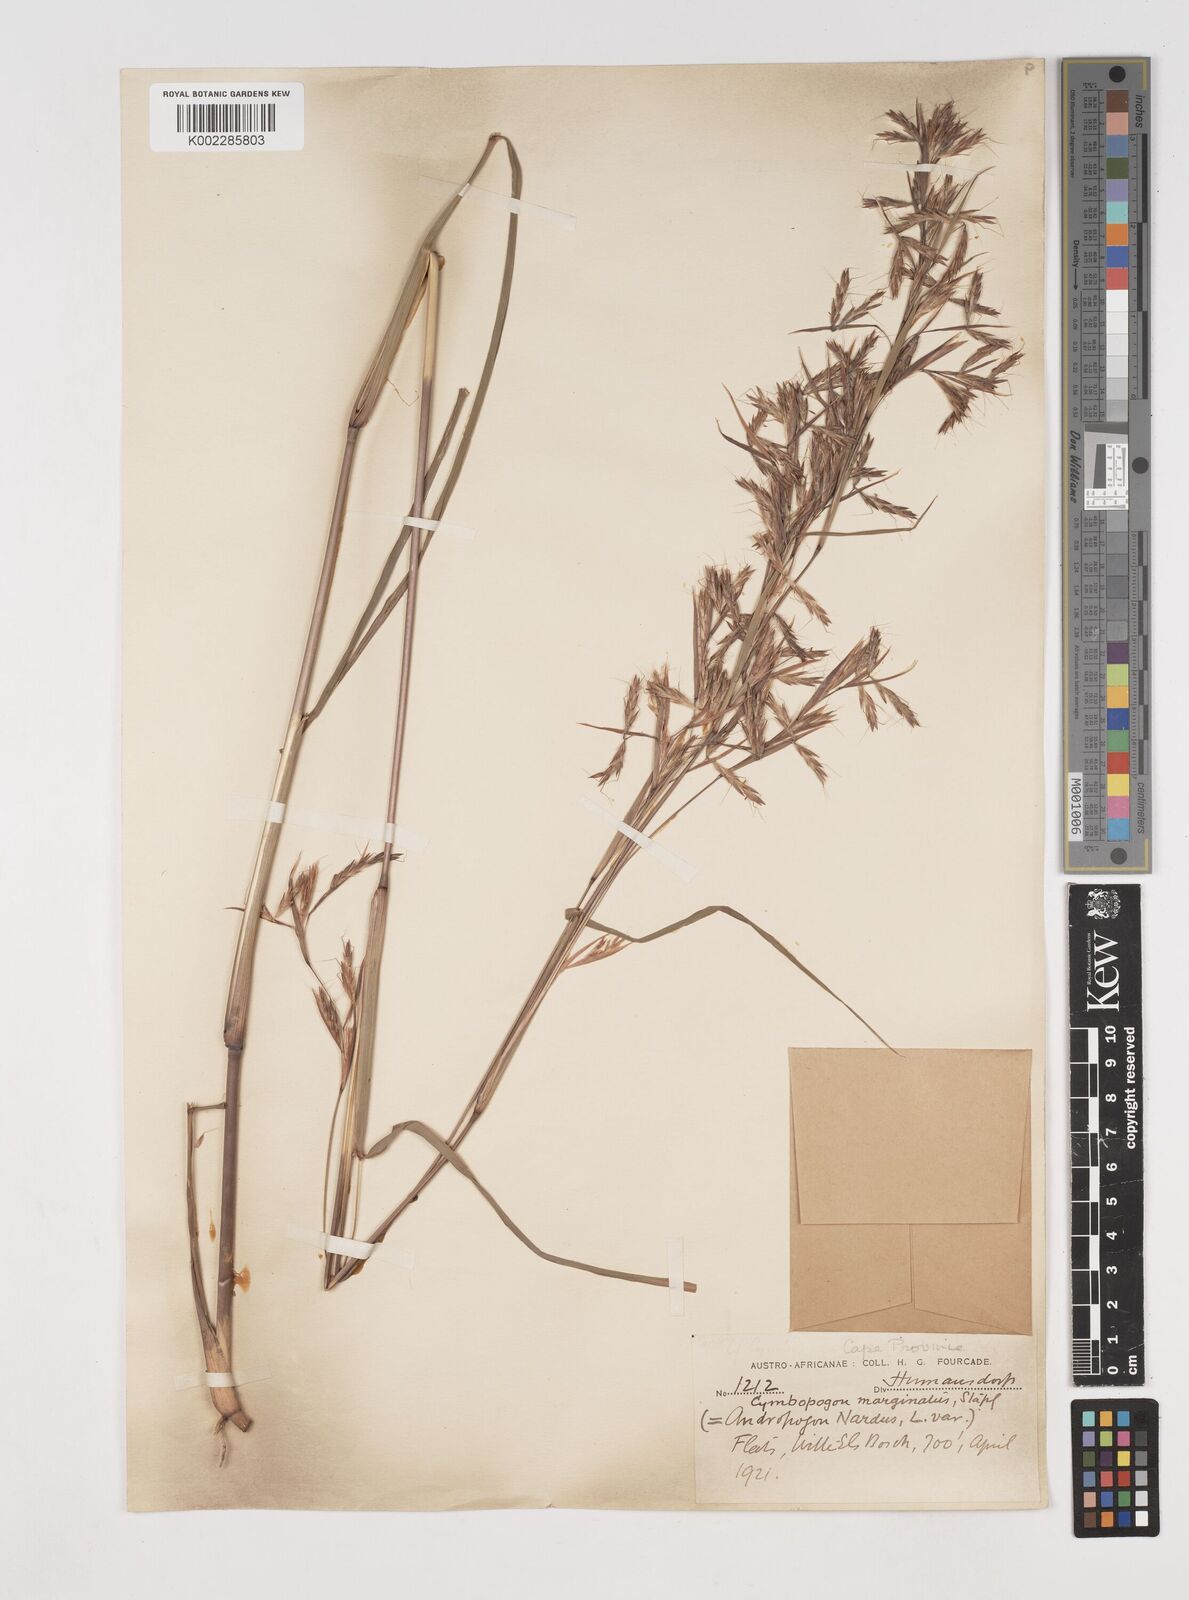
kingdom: Plantae
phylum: Tracheophyta
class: Liliopsida
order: Poales
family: Poaceae
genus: Cymbopogon
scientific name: Cymbopogon nardus
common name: Giant turpentine grass
